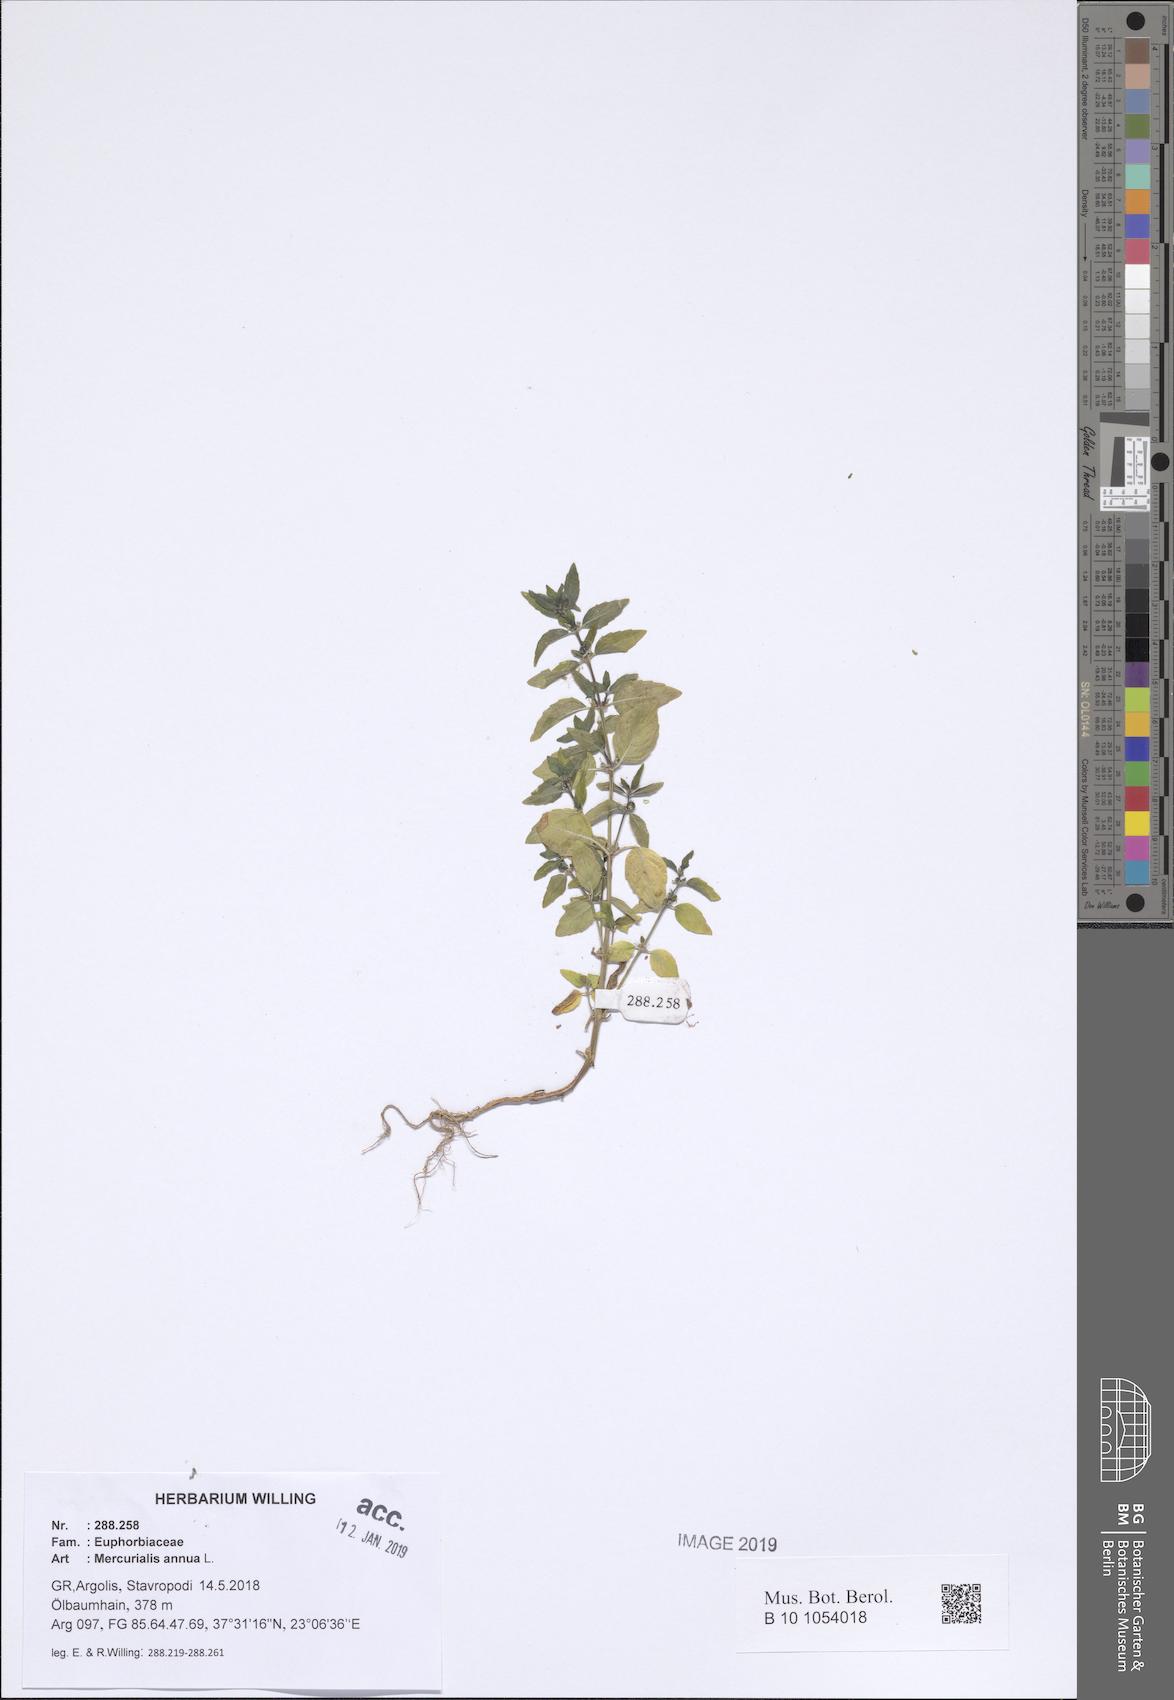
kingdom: Plantae
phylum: Tracheophyta
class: Magnoliopsida
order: Malpighiales
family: Euphorbiaceae
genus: Mercurialis
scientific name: Mercurialis annua
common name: Annual mercury
